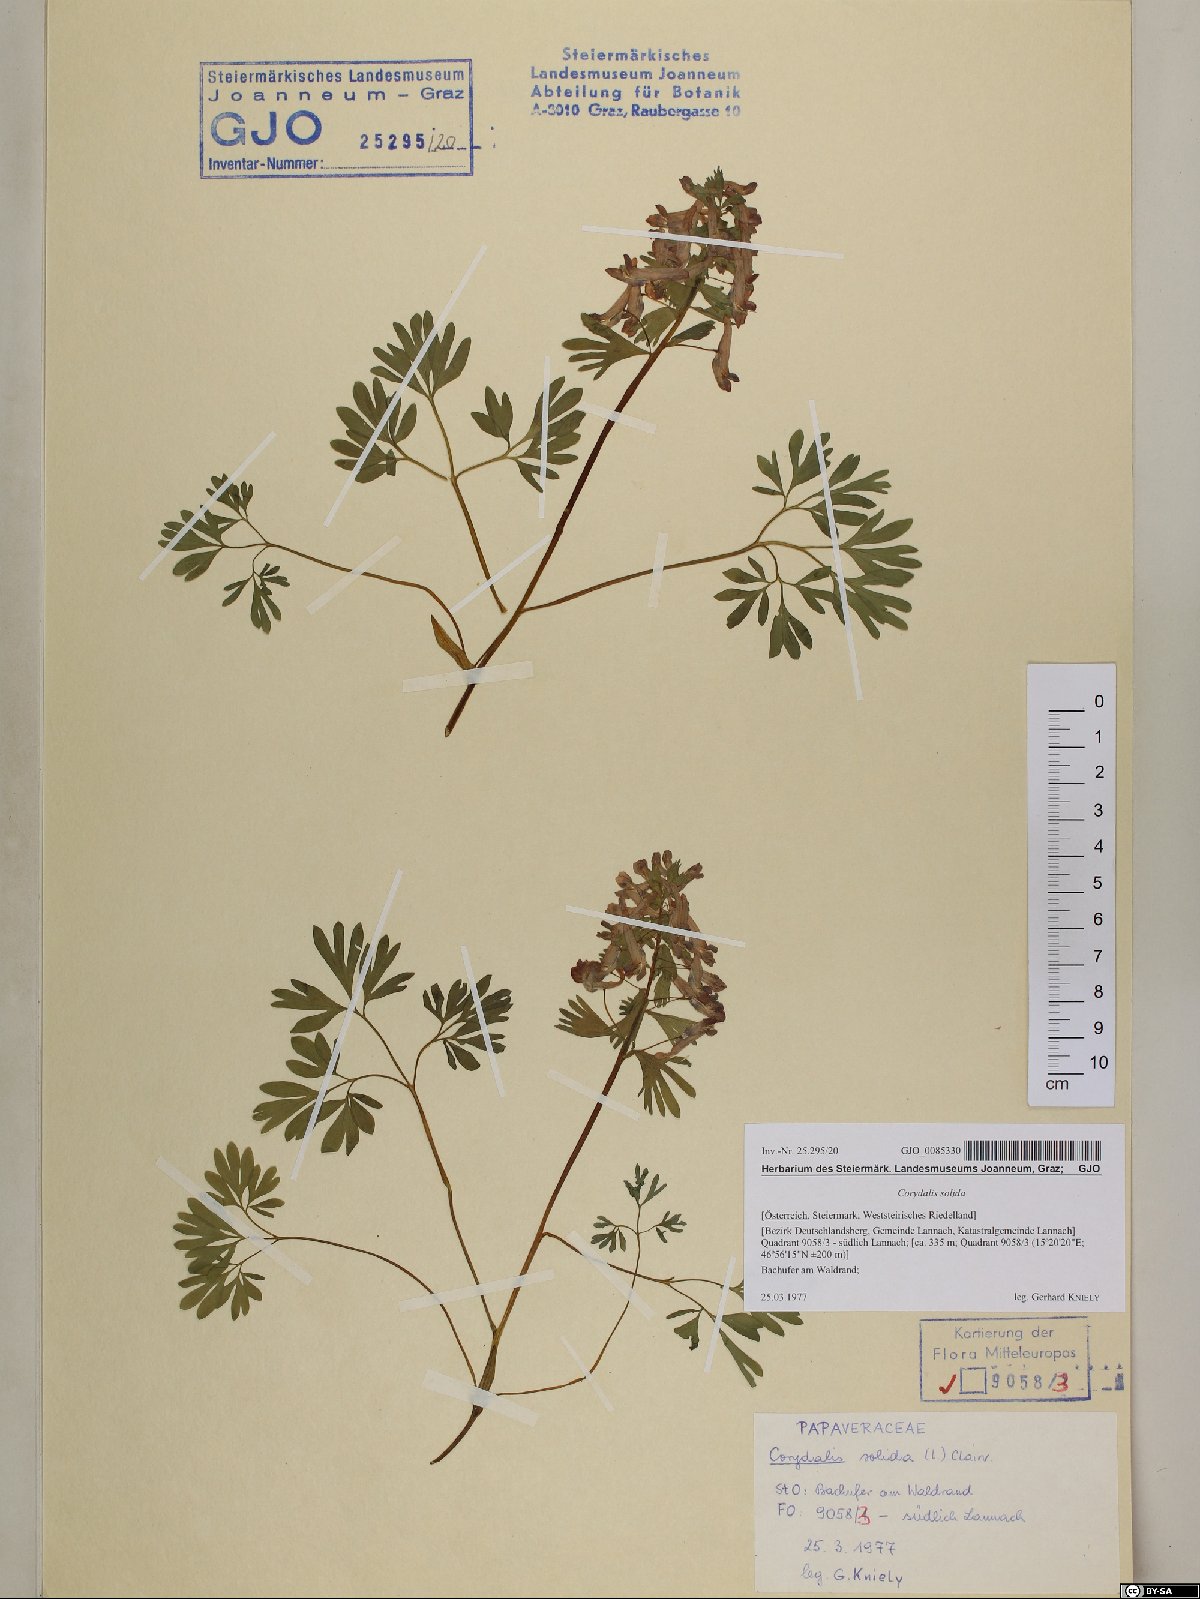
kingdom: Plantae
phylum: Tracheophyta
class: Magnoliopsida
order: Ranunculales
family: Papaveraceae
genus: Corydalis
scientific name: Corydalis solida
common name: Bird-in-a-bush
